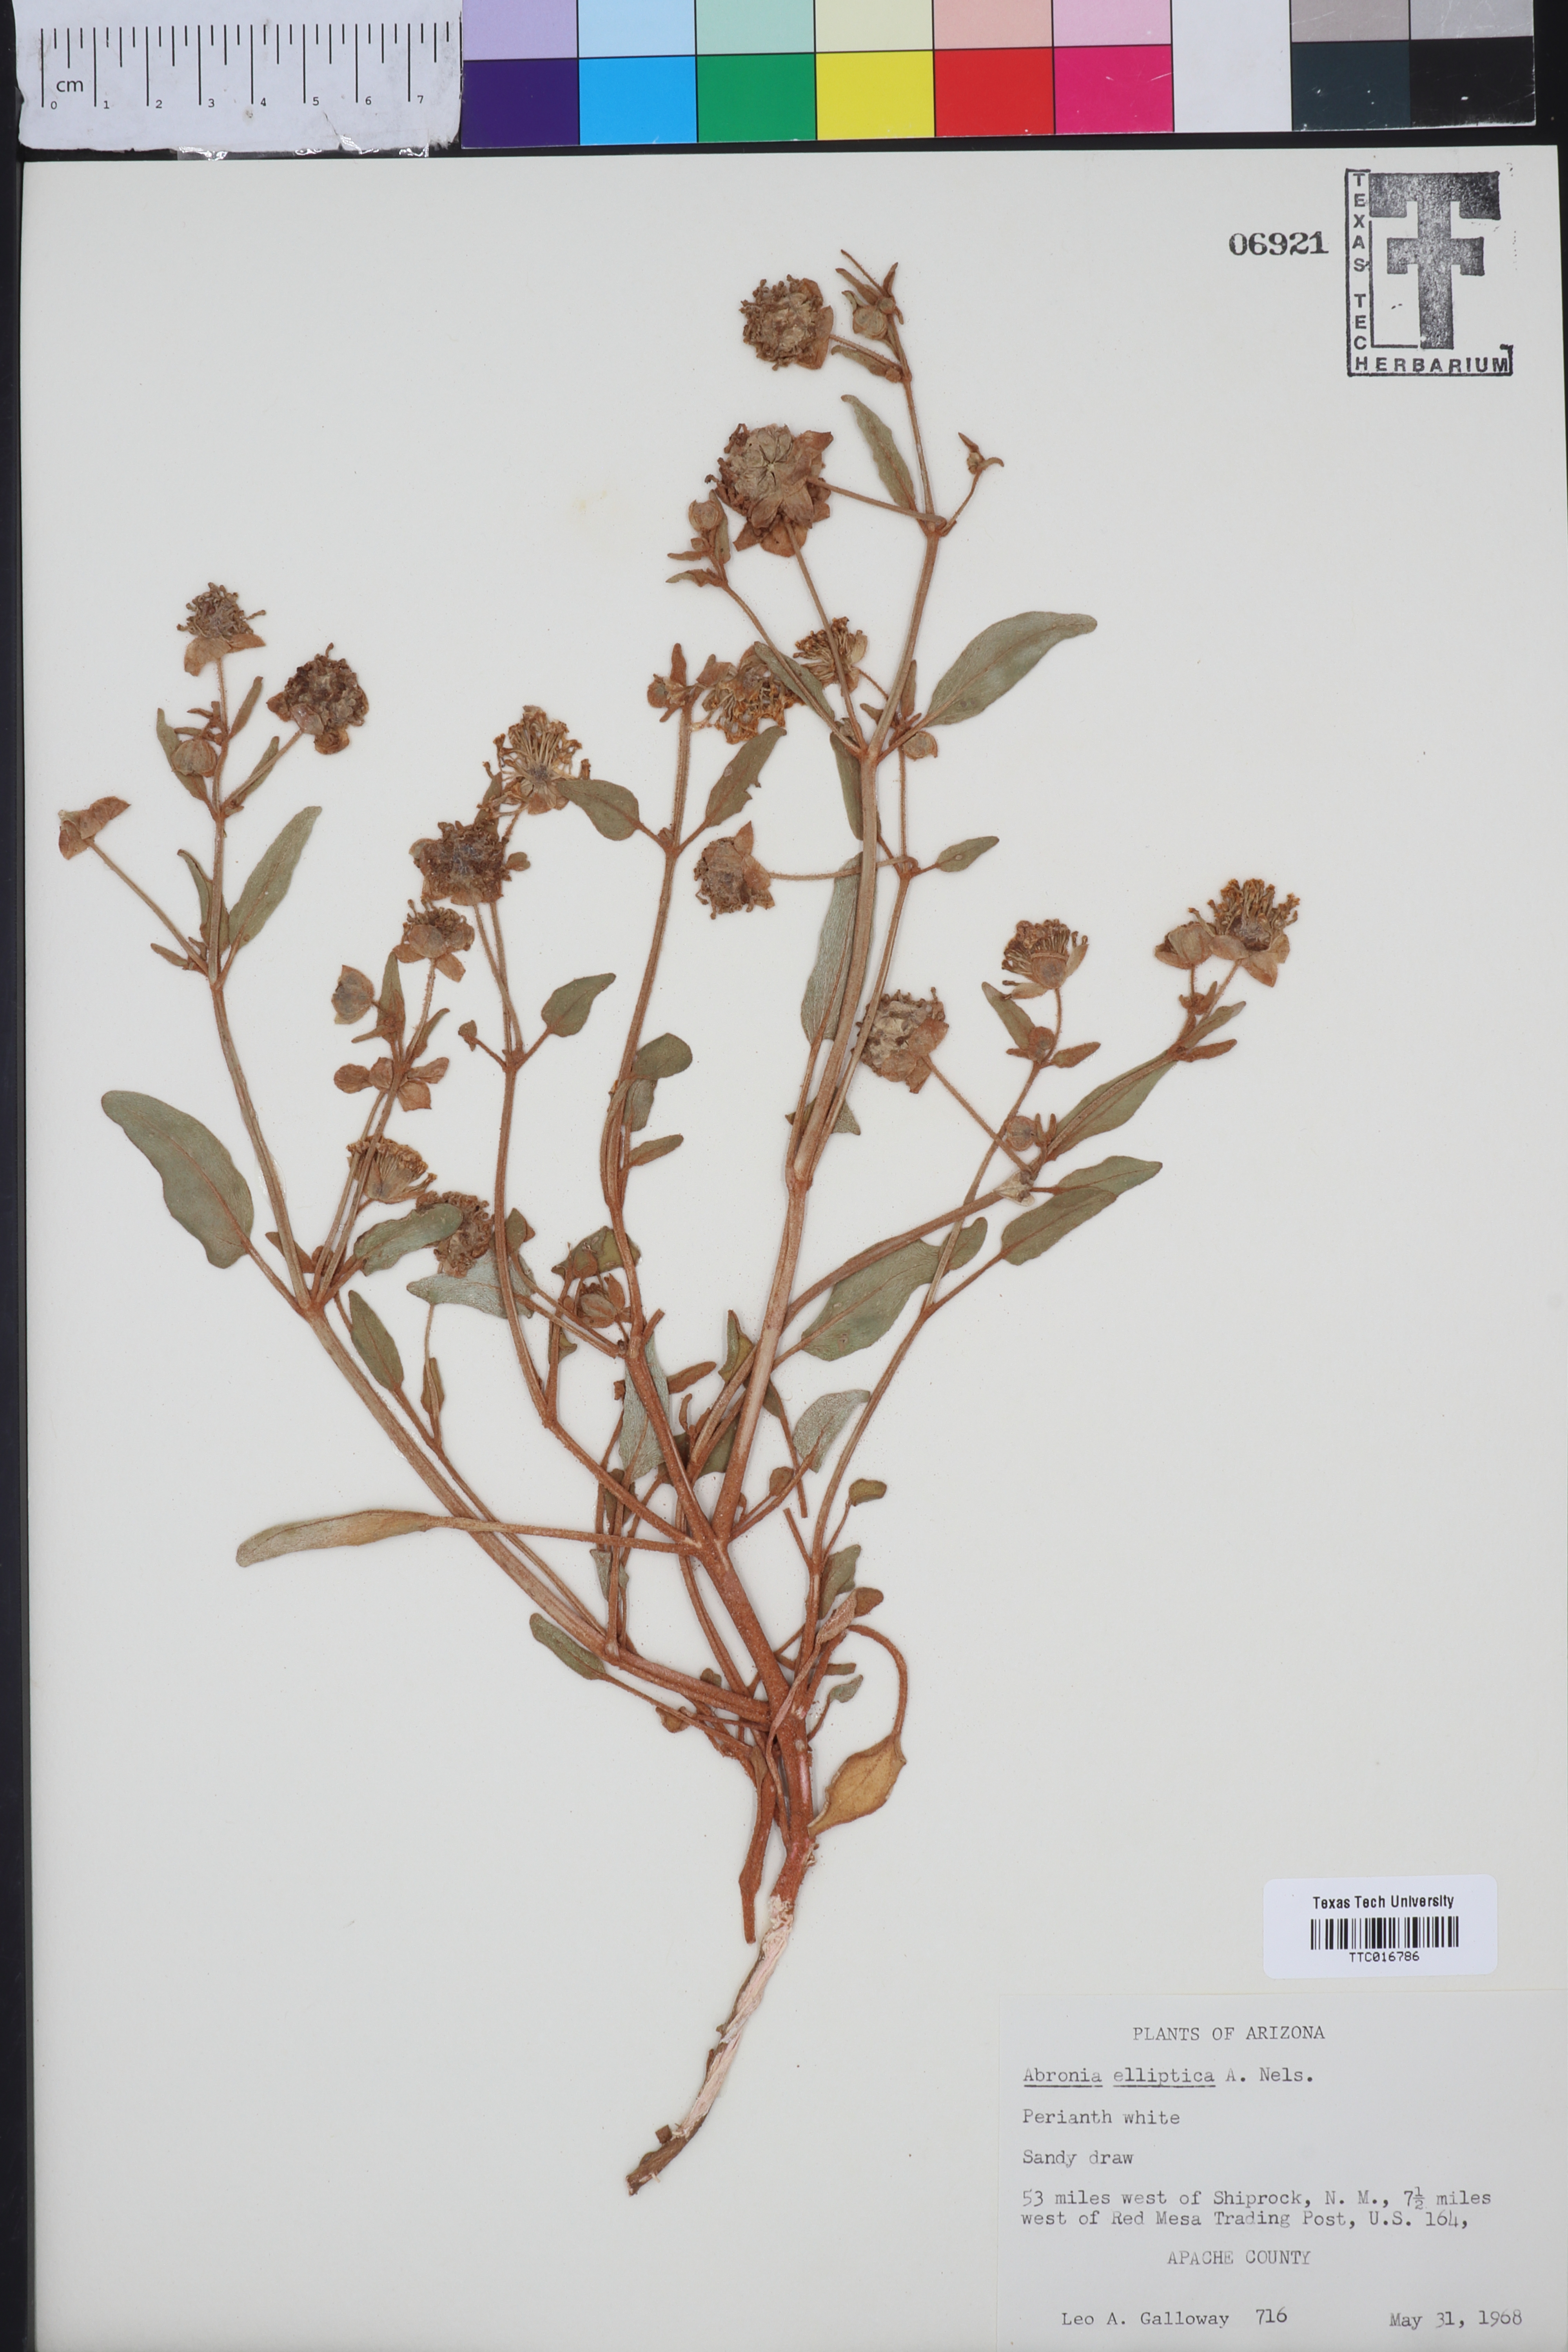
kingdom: Plantae
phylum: Tracheophyta
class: Magnoliopsida
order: Caryophyllales
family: Nyctaginaceae
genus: Abronia
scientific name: Abronia elliptica
